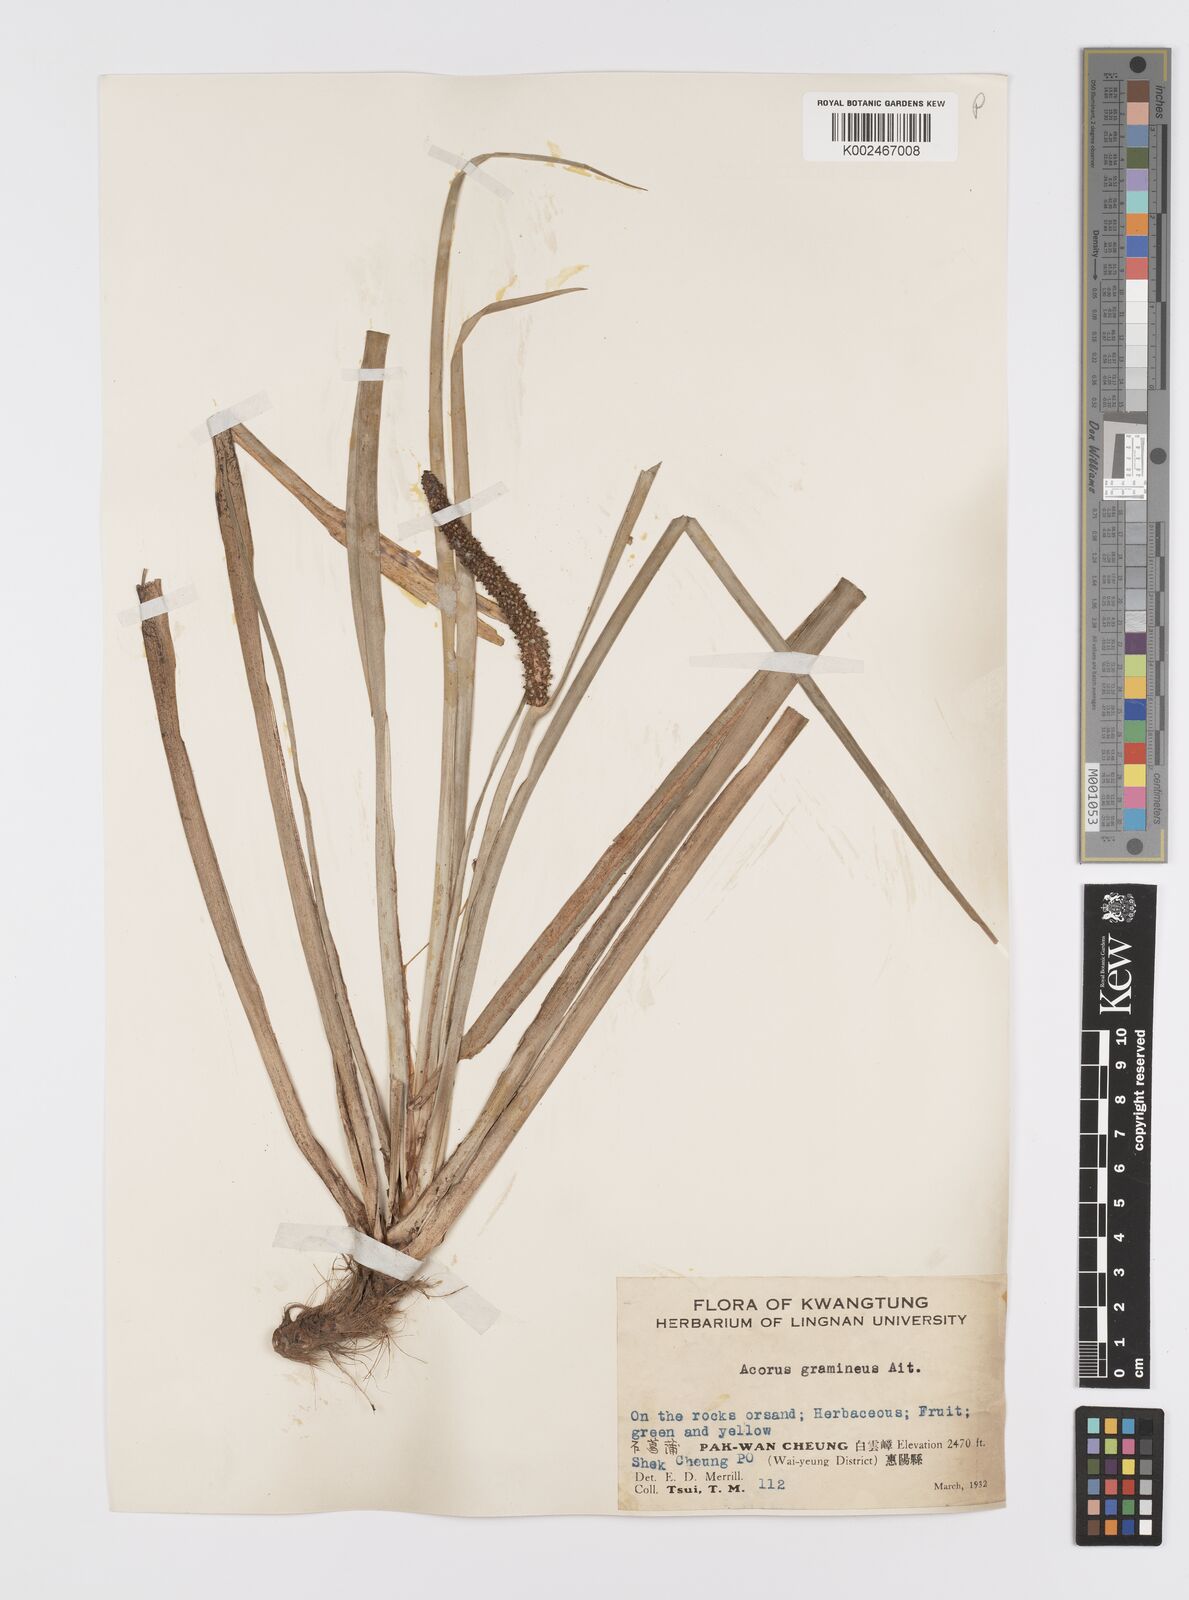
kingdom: Plantae
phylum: Tracheophyta
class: Liliopsida
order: Acorales
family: Acoraceae
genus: Acorus
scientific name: Acorus gramineus
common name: Slender sweet-flag
